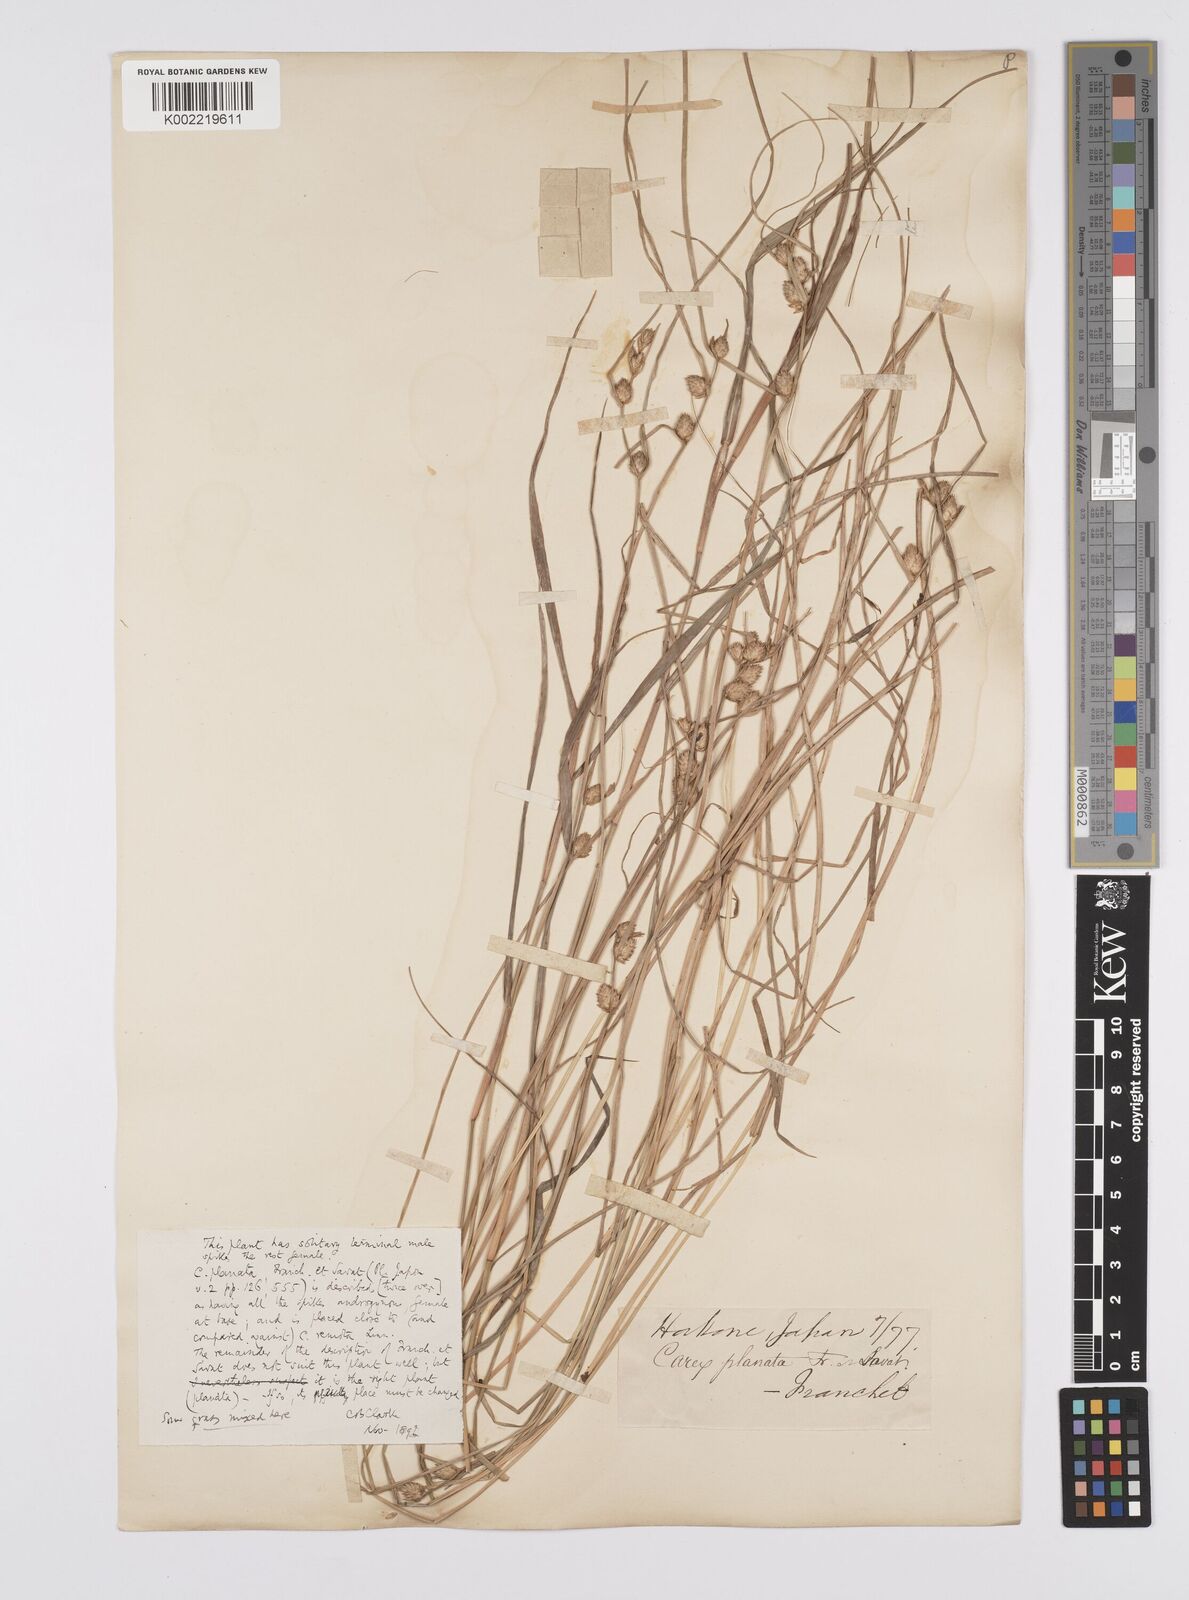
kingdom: Plantae
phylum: Tracheophyta
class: Liliopsida
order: Poales
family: Cyperaceae
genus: Carex
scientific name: Carex planata
